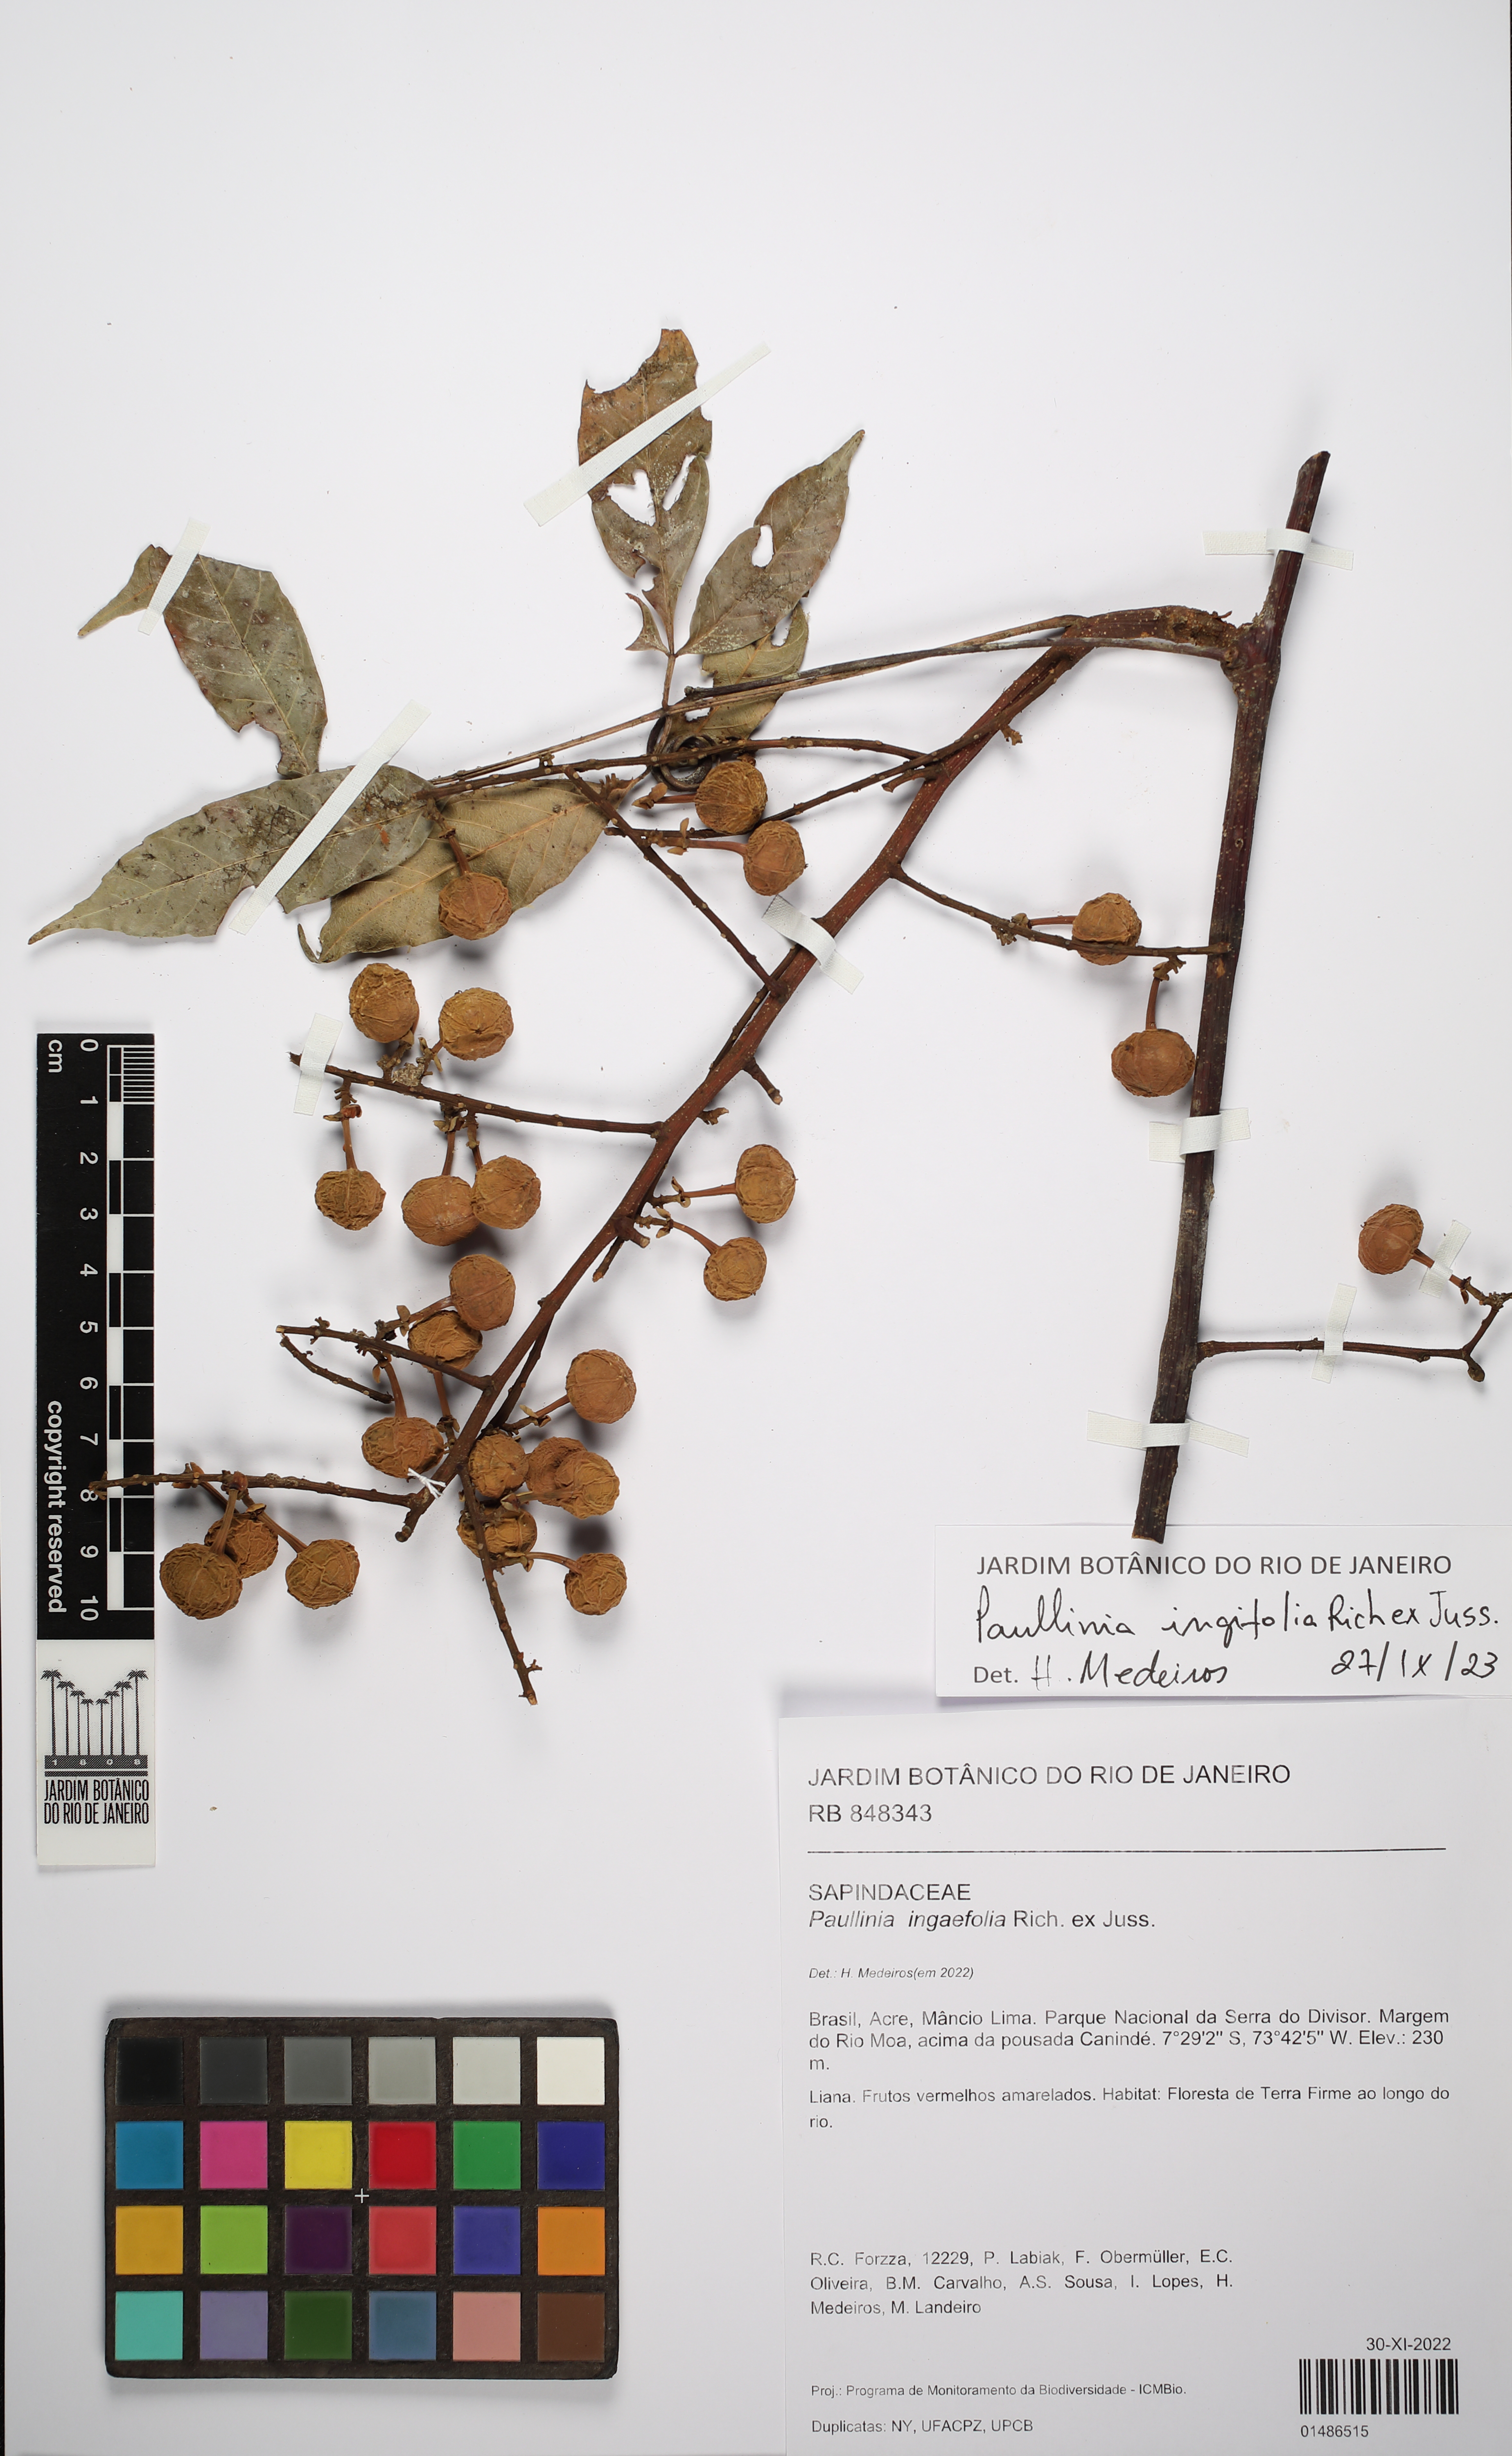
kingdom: Plantae
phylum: Tracheophyta
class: Magnoliopsida
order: Sapindales
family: Sapindaceae
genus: Paullinia
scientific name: Paullinia ingifolia
